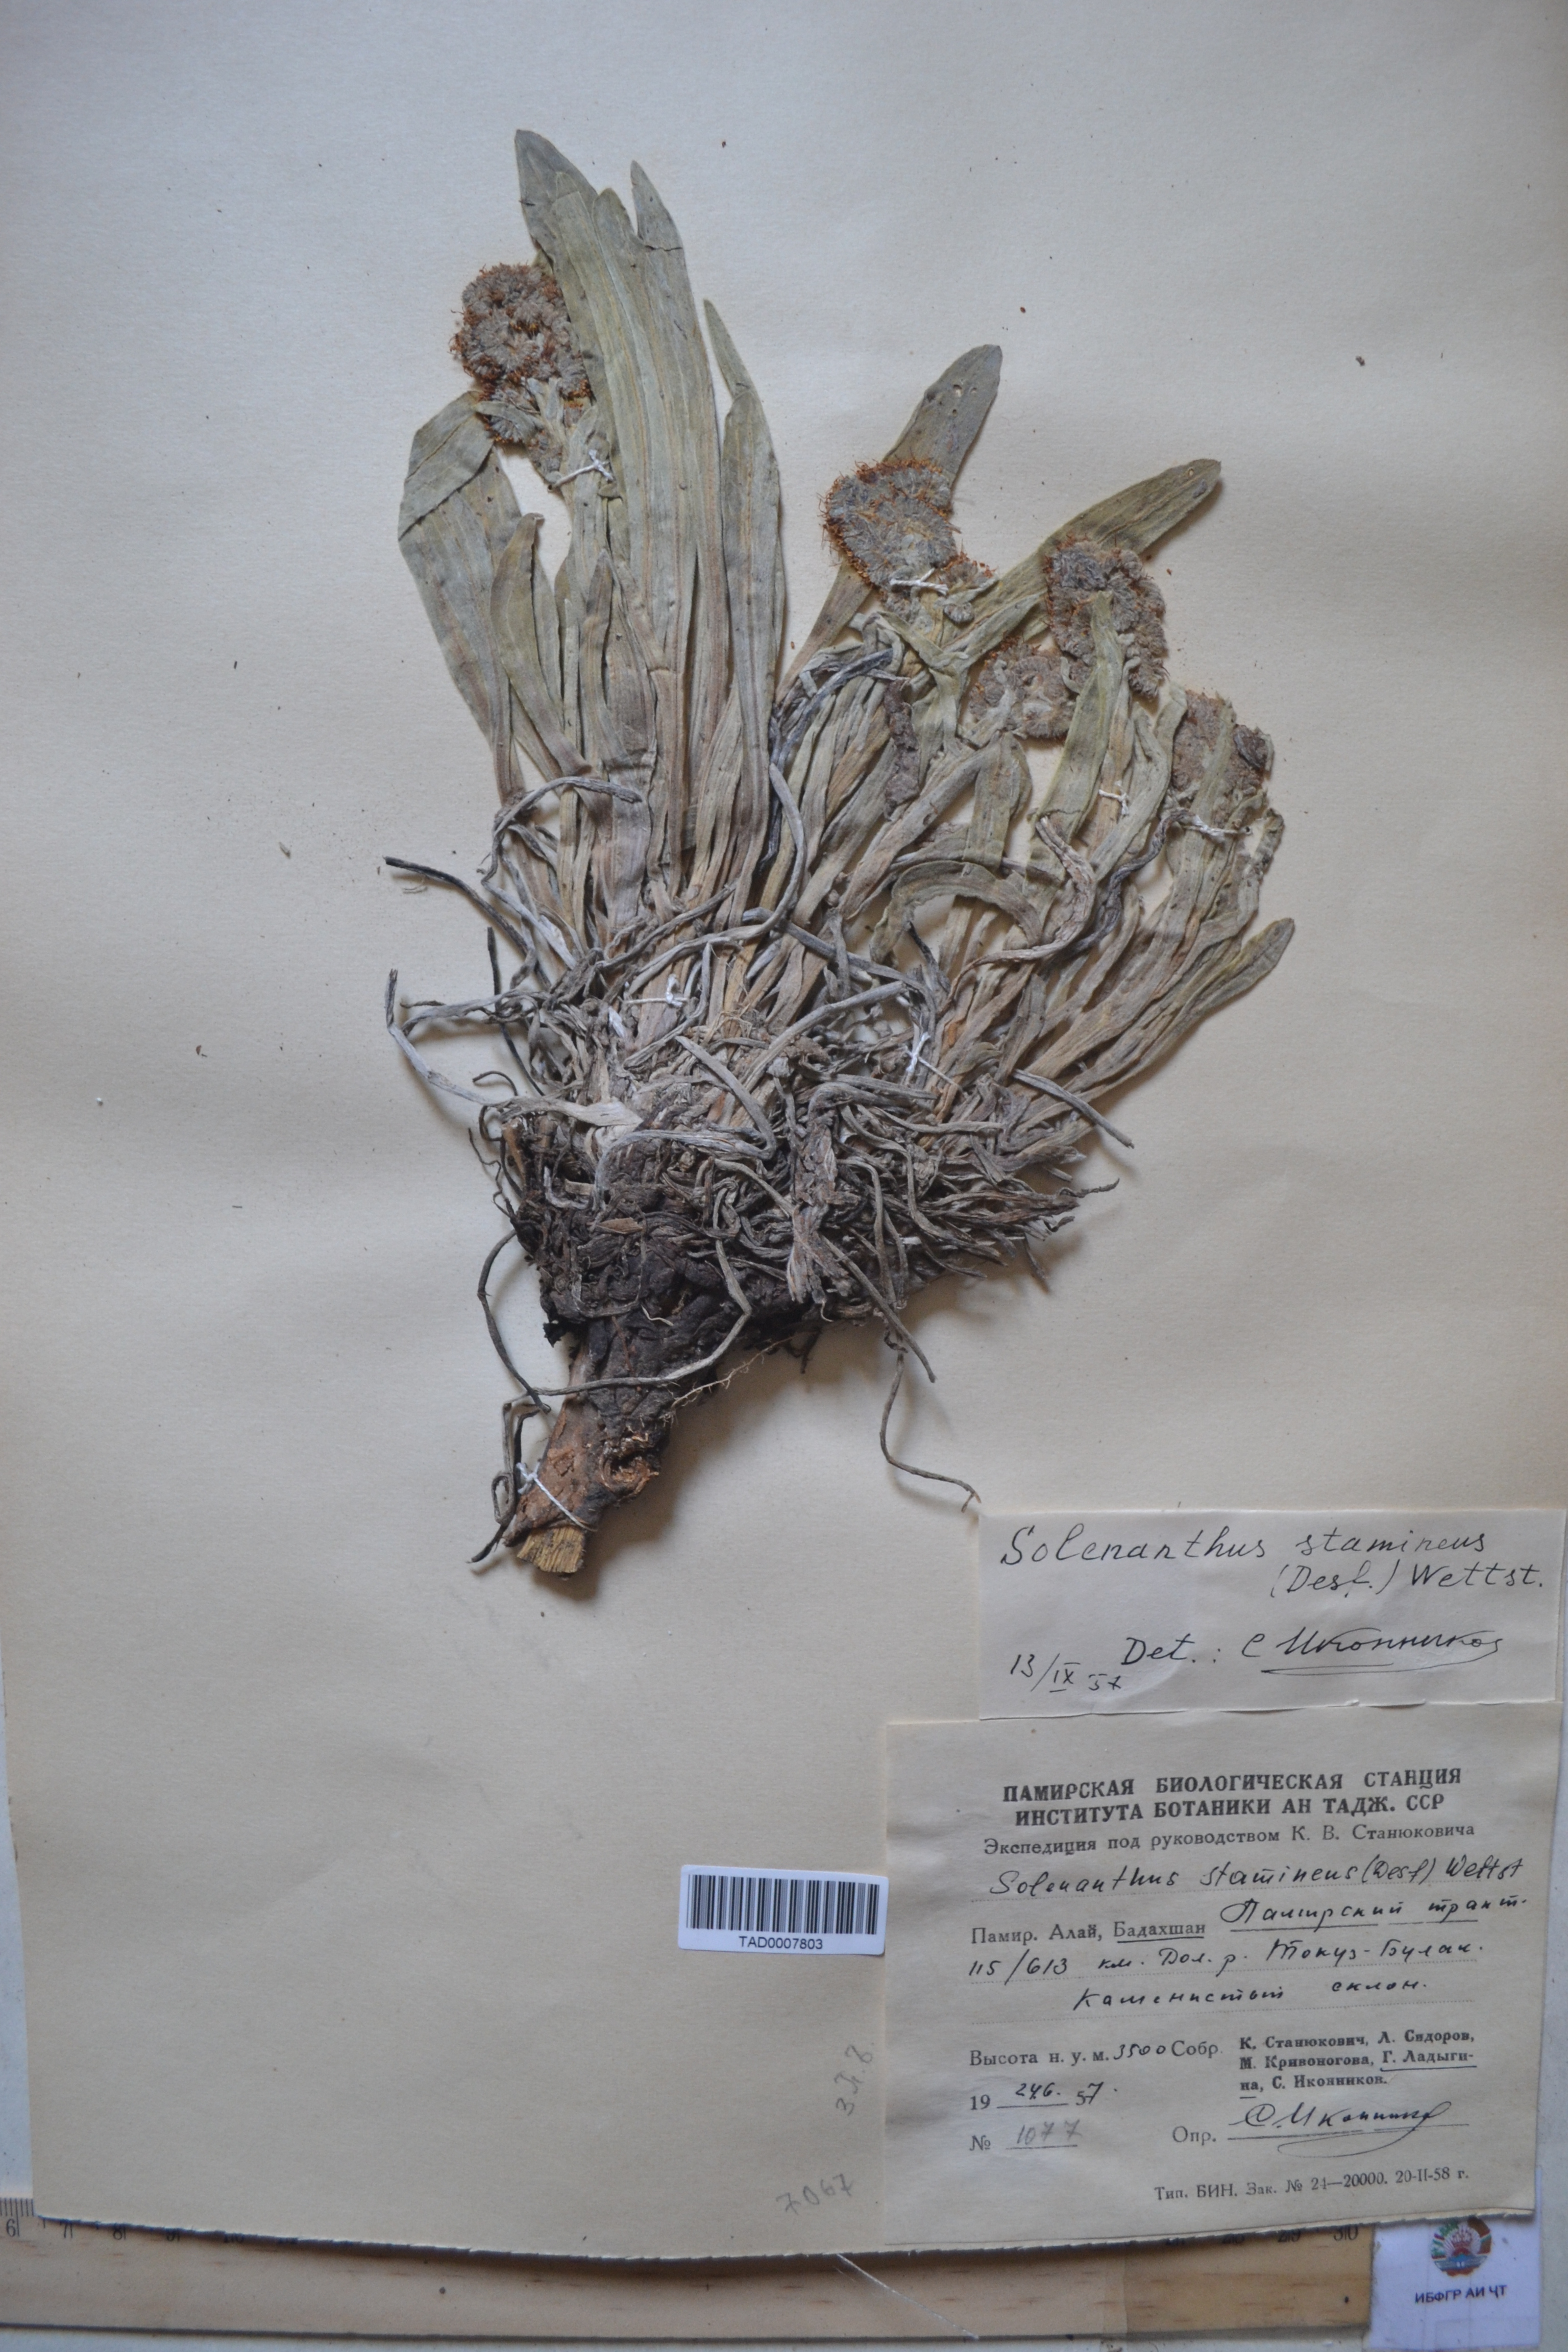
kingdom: Plantae
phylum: Tracheophyta
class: Magnoliopsida
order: Boraginales
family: Boraginaceae
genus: Solenanthus
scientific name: Solenanthus stamineus
